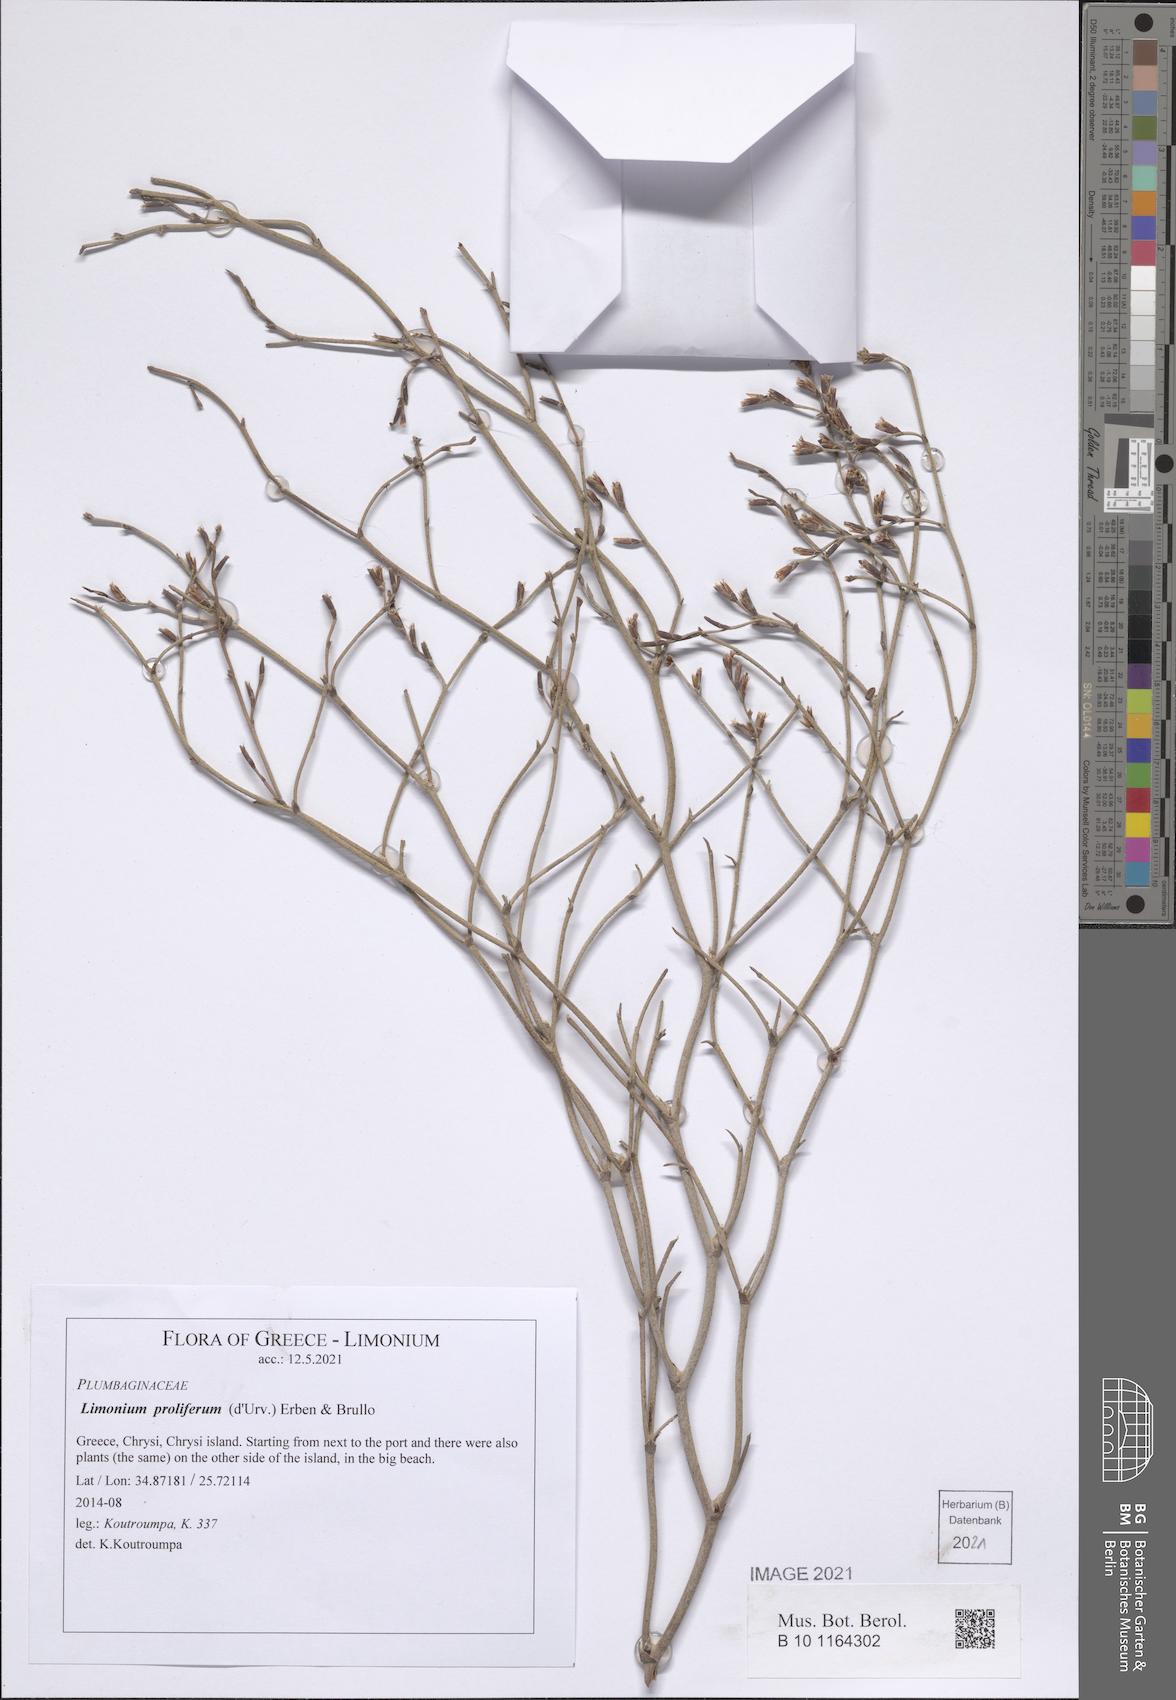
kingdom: Plantae
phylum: Tracheophyta
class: Magnoliopsida
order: Caryophyllales
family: Plumbaginaceae
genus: Limonium
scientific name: Limonium proliferum
